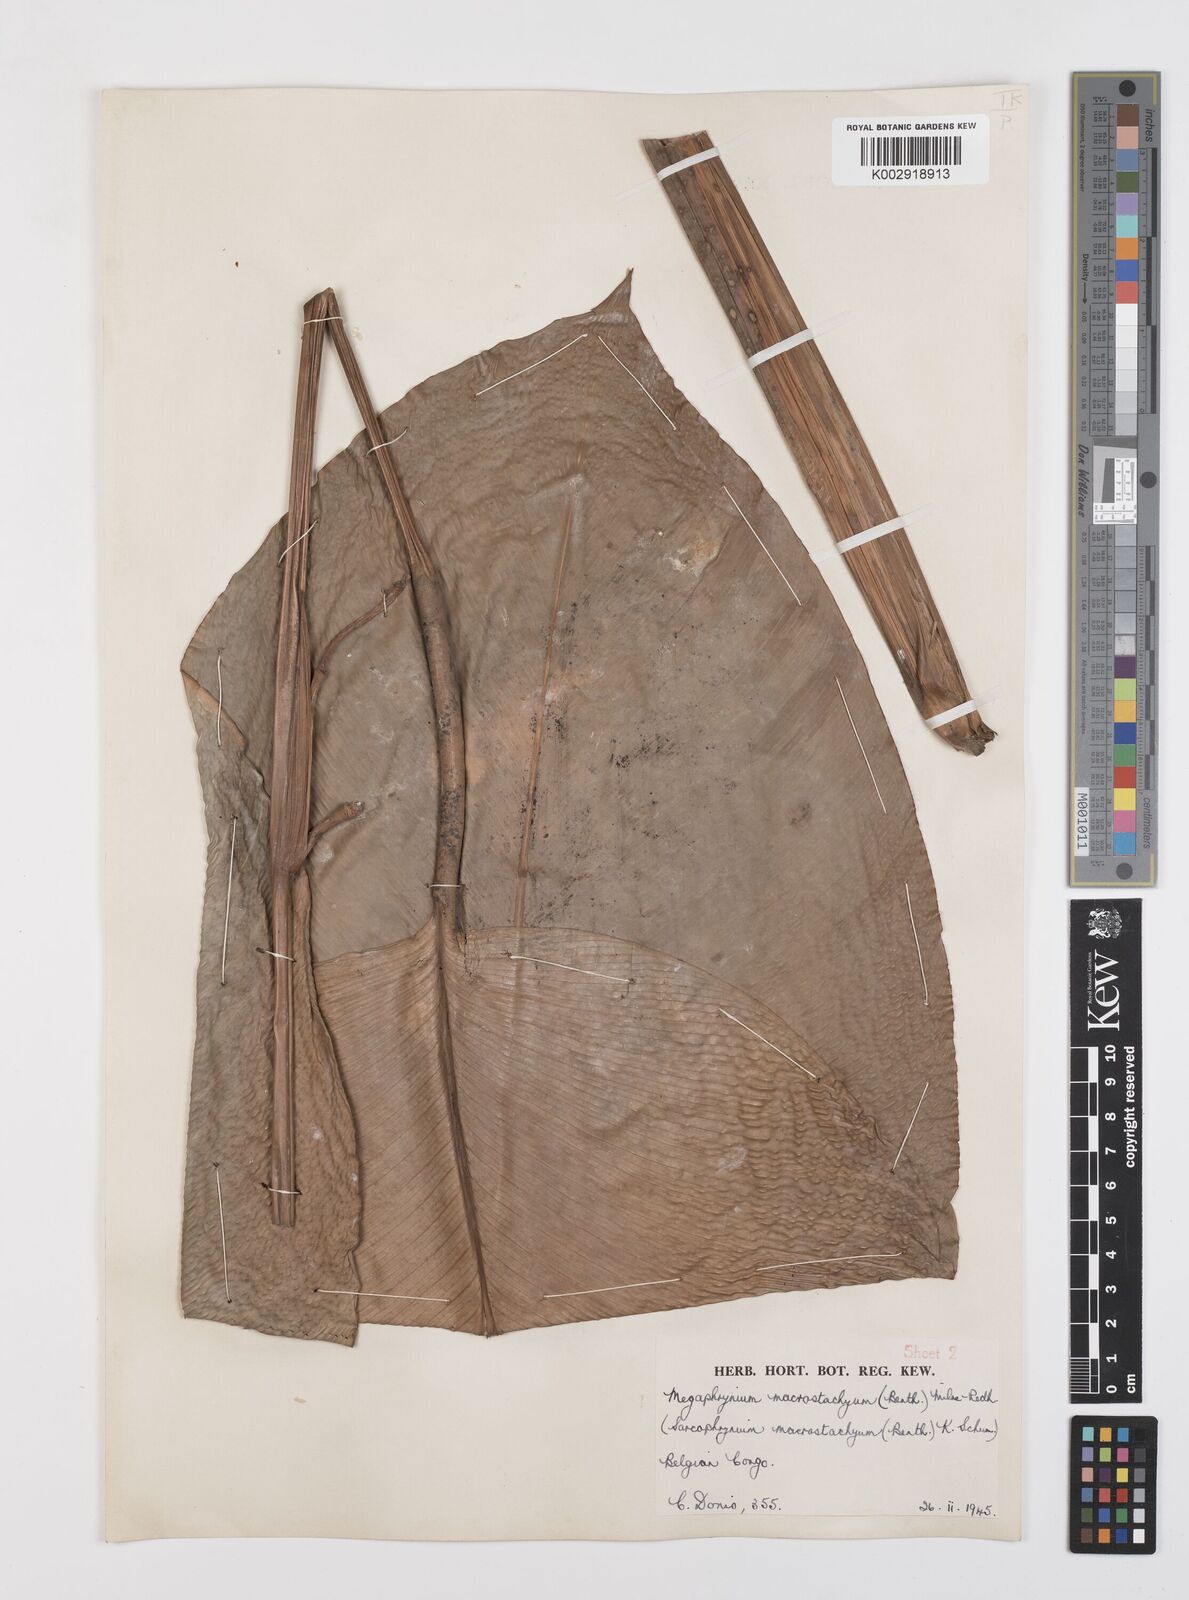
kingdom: Plantae
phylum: Tracheophyta
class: Liliopsida
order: Zingiberales
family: Marantaceae
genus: Megaphrynium
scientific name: Megaphrynium gabonense
